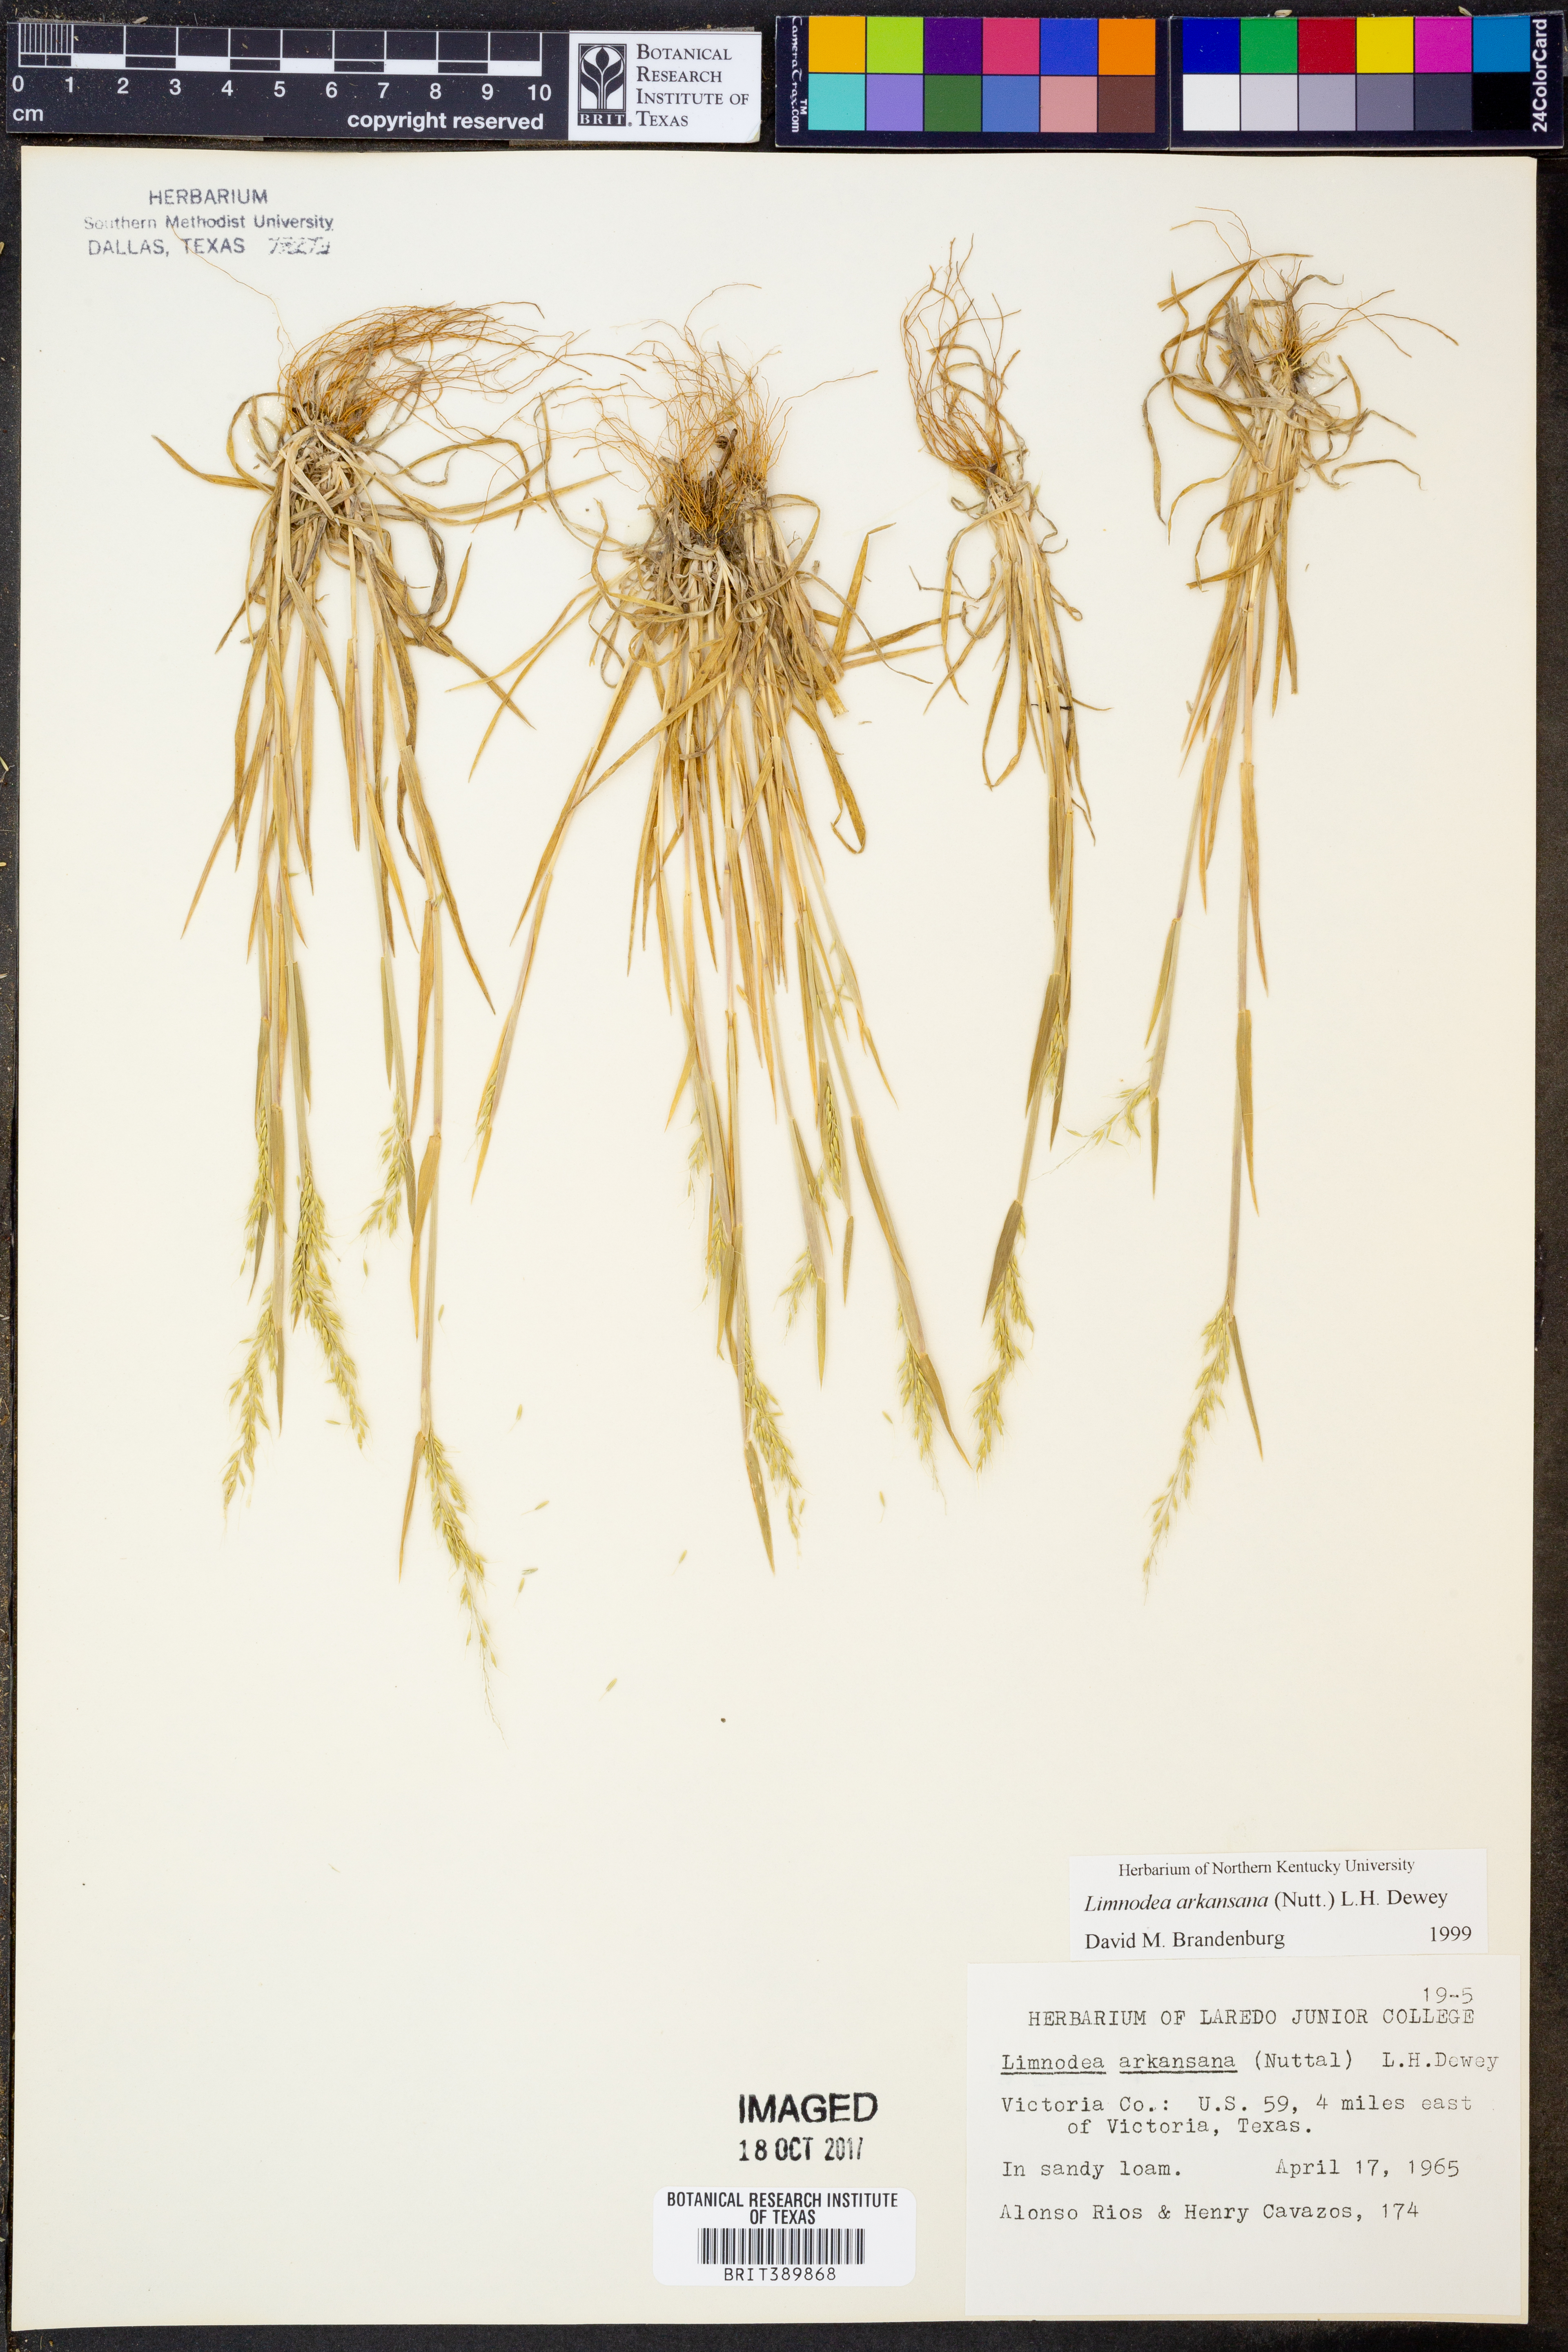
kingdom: Plantae
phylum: Tracheophyta
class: Liliopsida
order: Poales
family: Poaceae
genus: Limnodea
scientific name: Limnodea arkansana
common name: Ozark-grass
